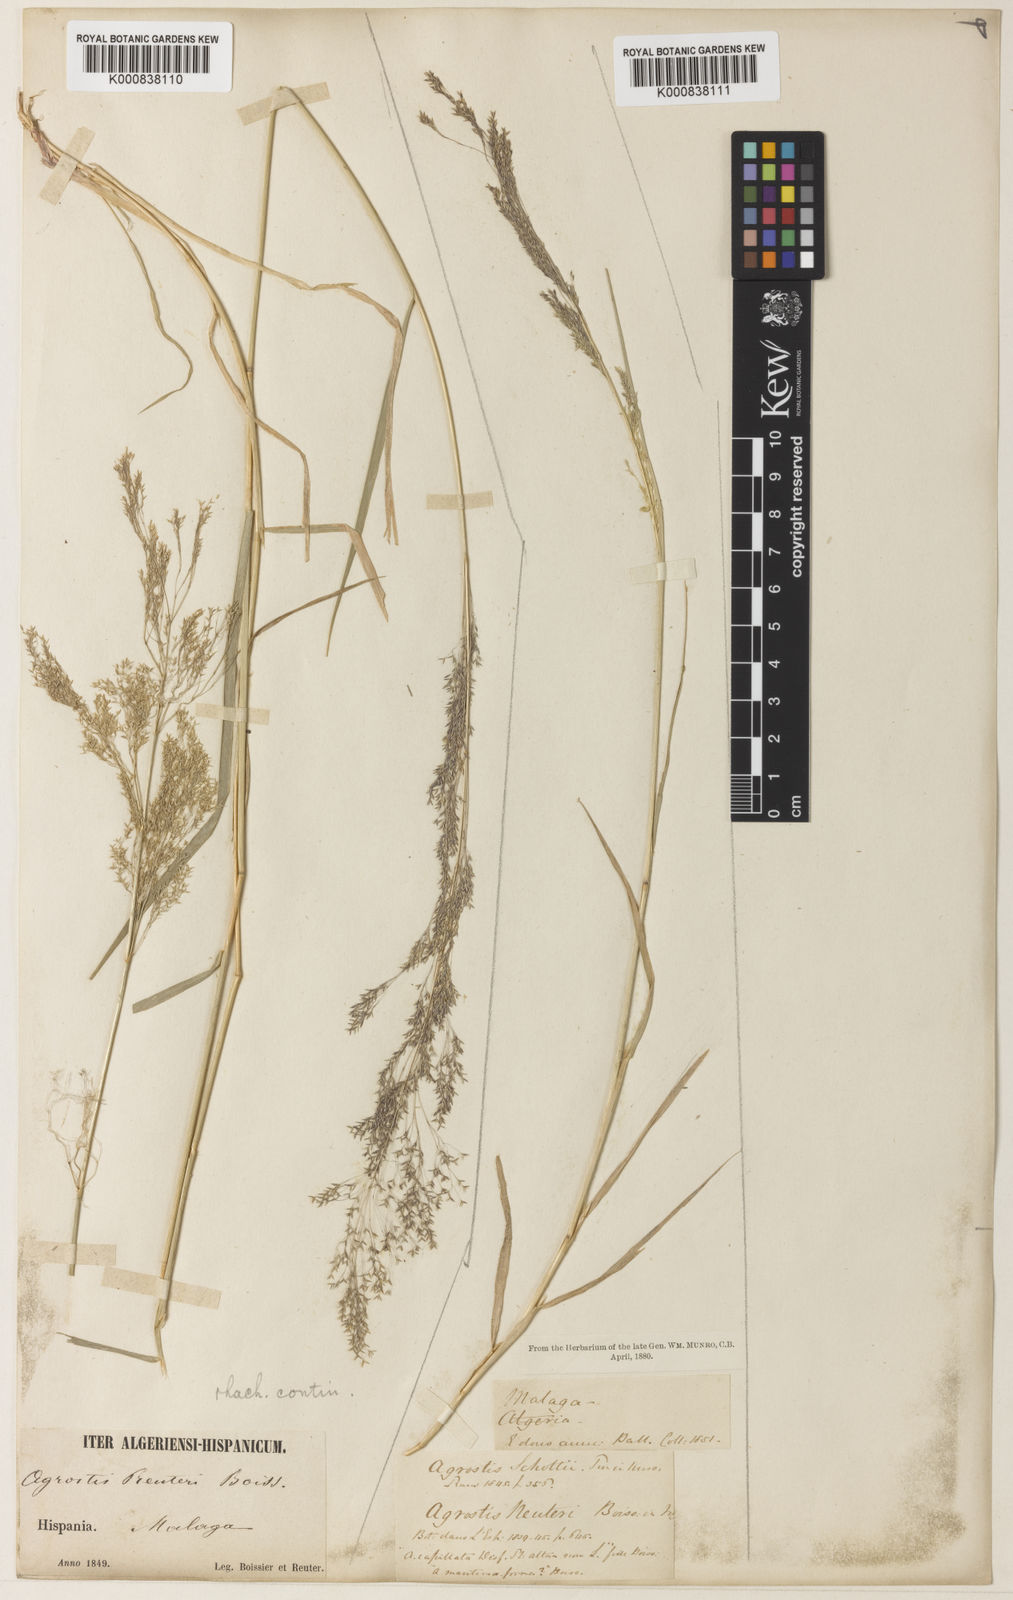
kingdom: Plantae
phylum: Tracheophyta
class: Liliopsida
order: Poales
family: Poaceae
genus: Agrostis
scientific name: Agrostis reuteri
